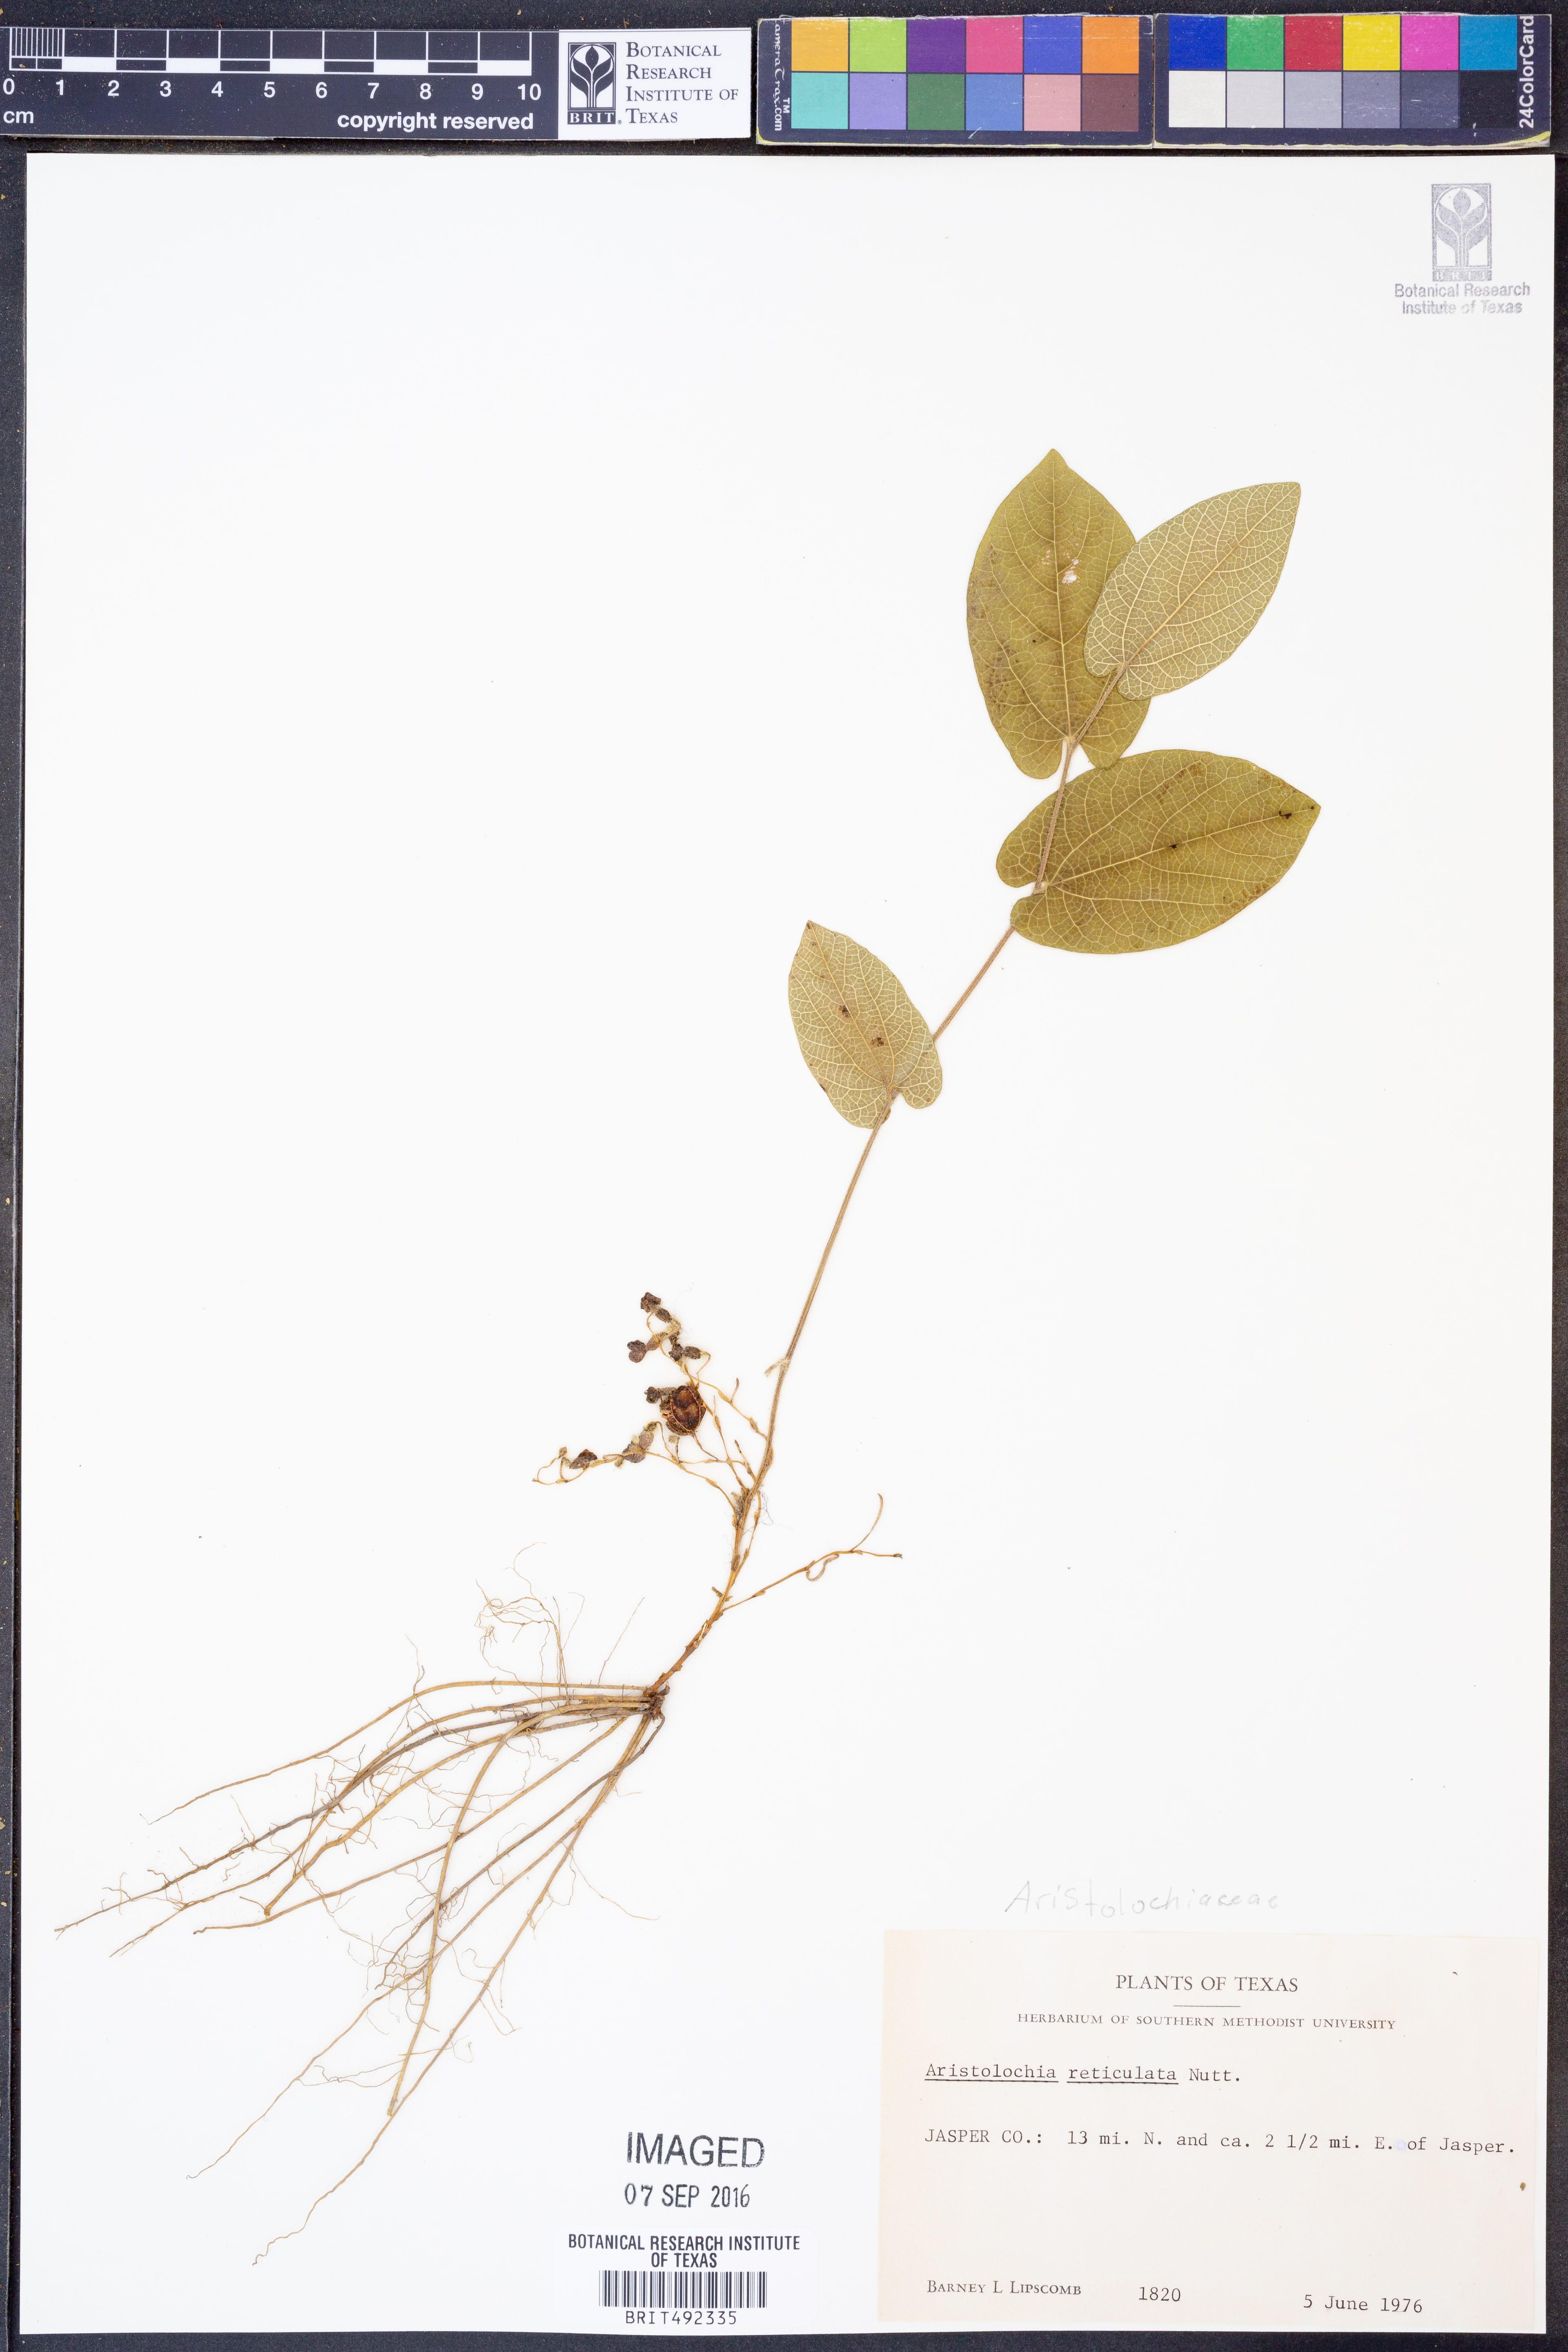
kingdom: Plantae
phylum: Tracheophyta
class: Magnoliopsida
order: Piperales
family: Aristolochiaceae
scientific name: Aristolochiaceae
